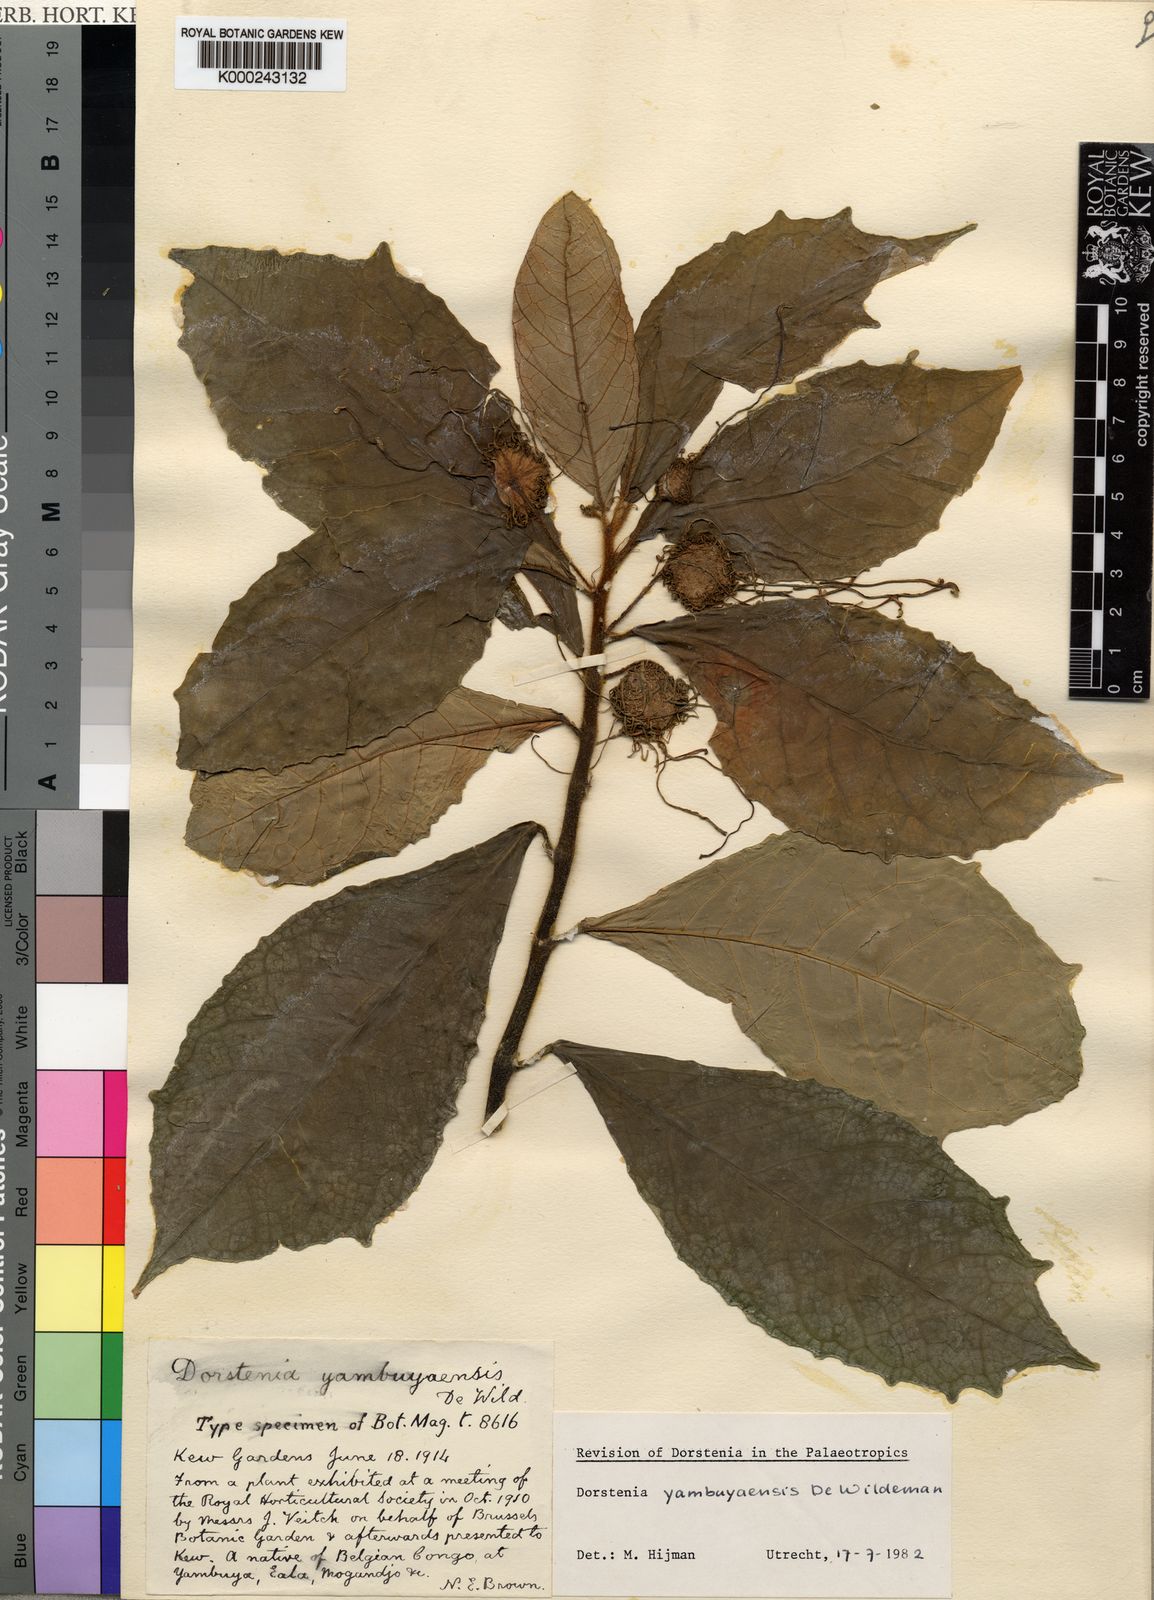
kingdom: Plantae
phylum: Tracheophyta
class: Magnoliopsida
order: Rosales
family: Moraceae
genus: Dorstenia
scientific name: Dorstenia yambuyaensis
